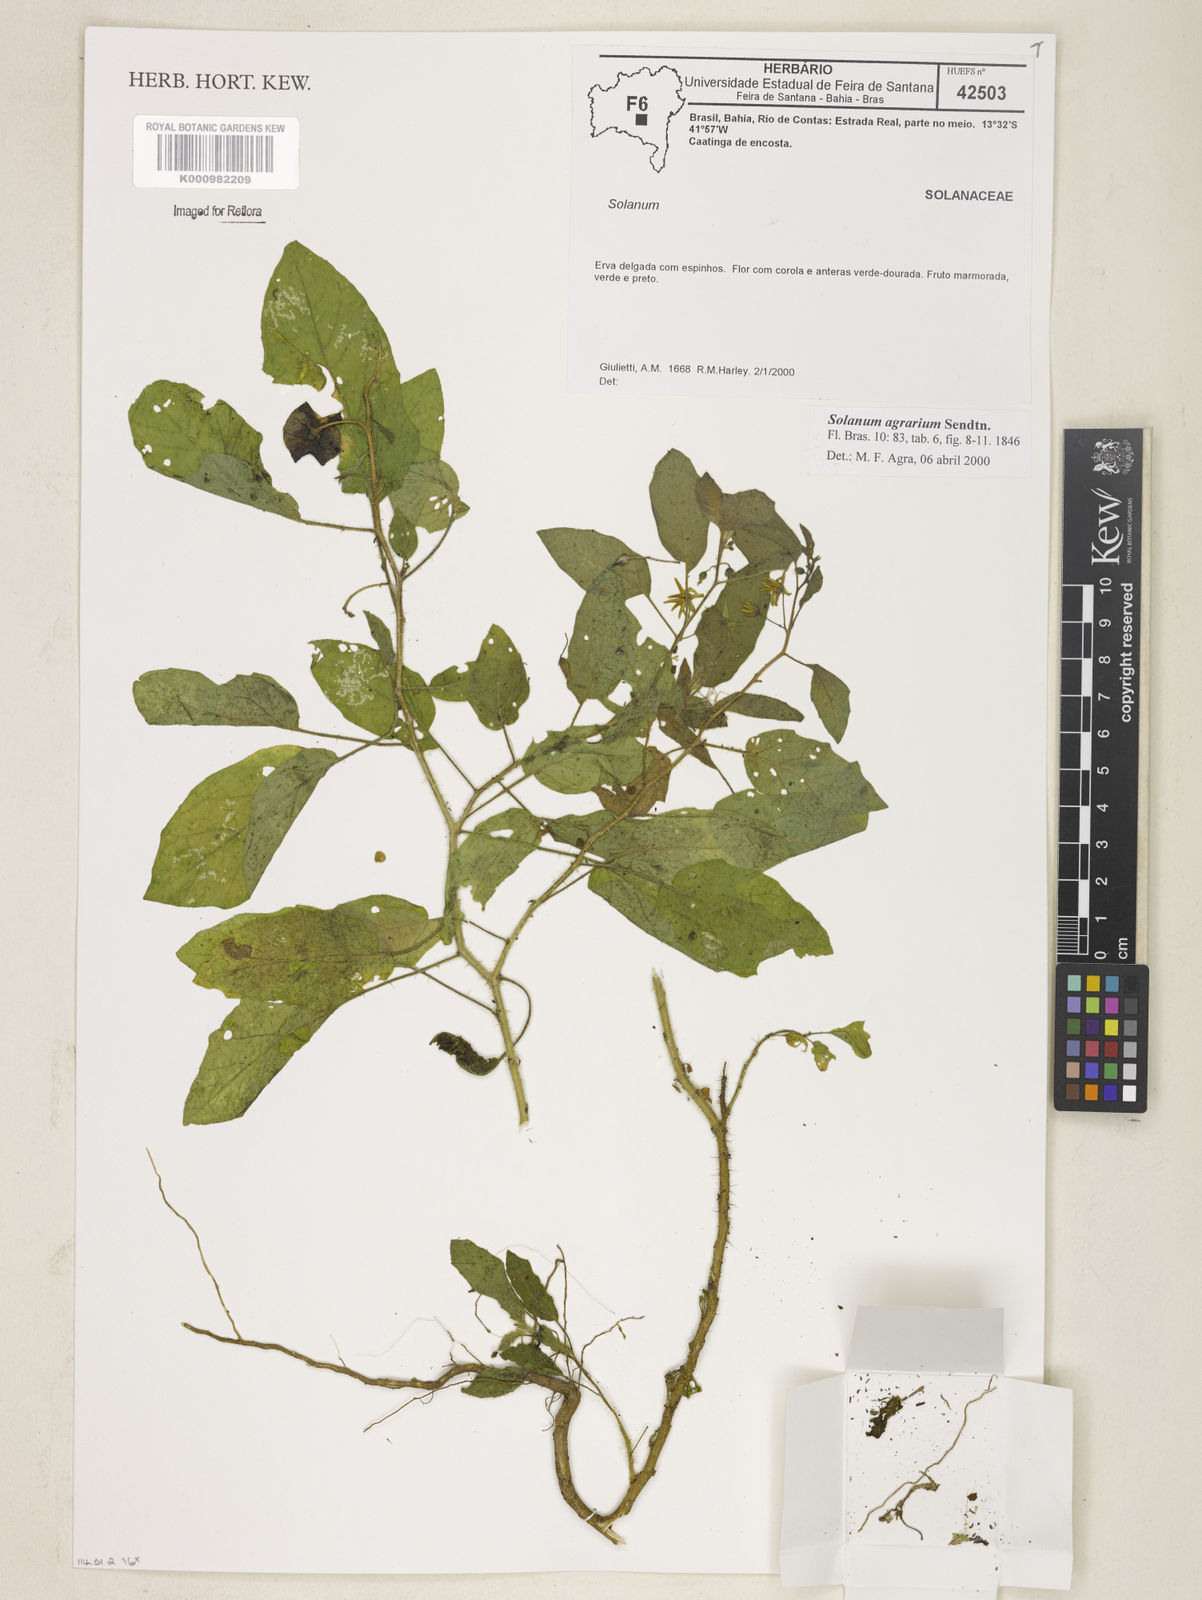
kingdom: Plantae
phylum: Tracheophyta
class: Magnoliopsida
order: Solanales
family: Solanaceae
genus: Solanum
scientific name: Solanum agrarium
